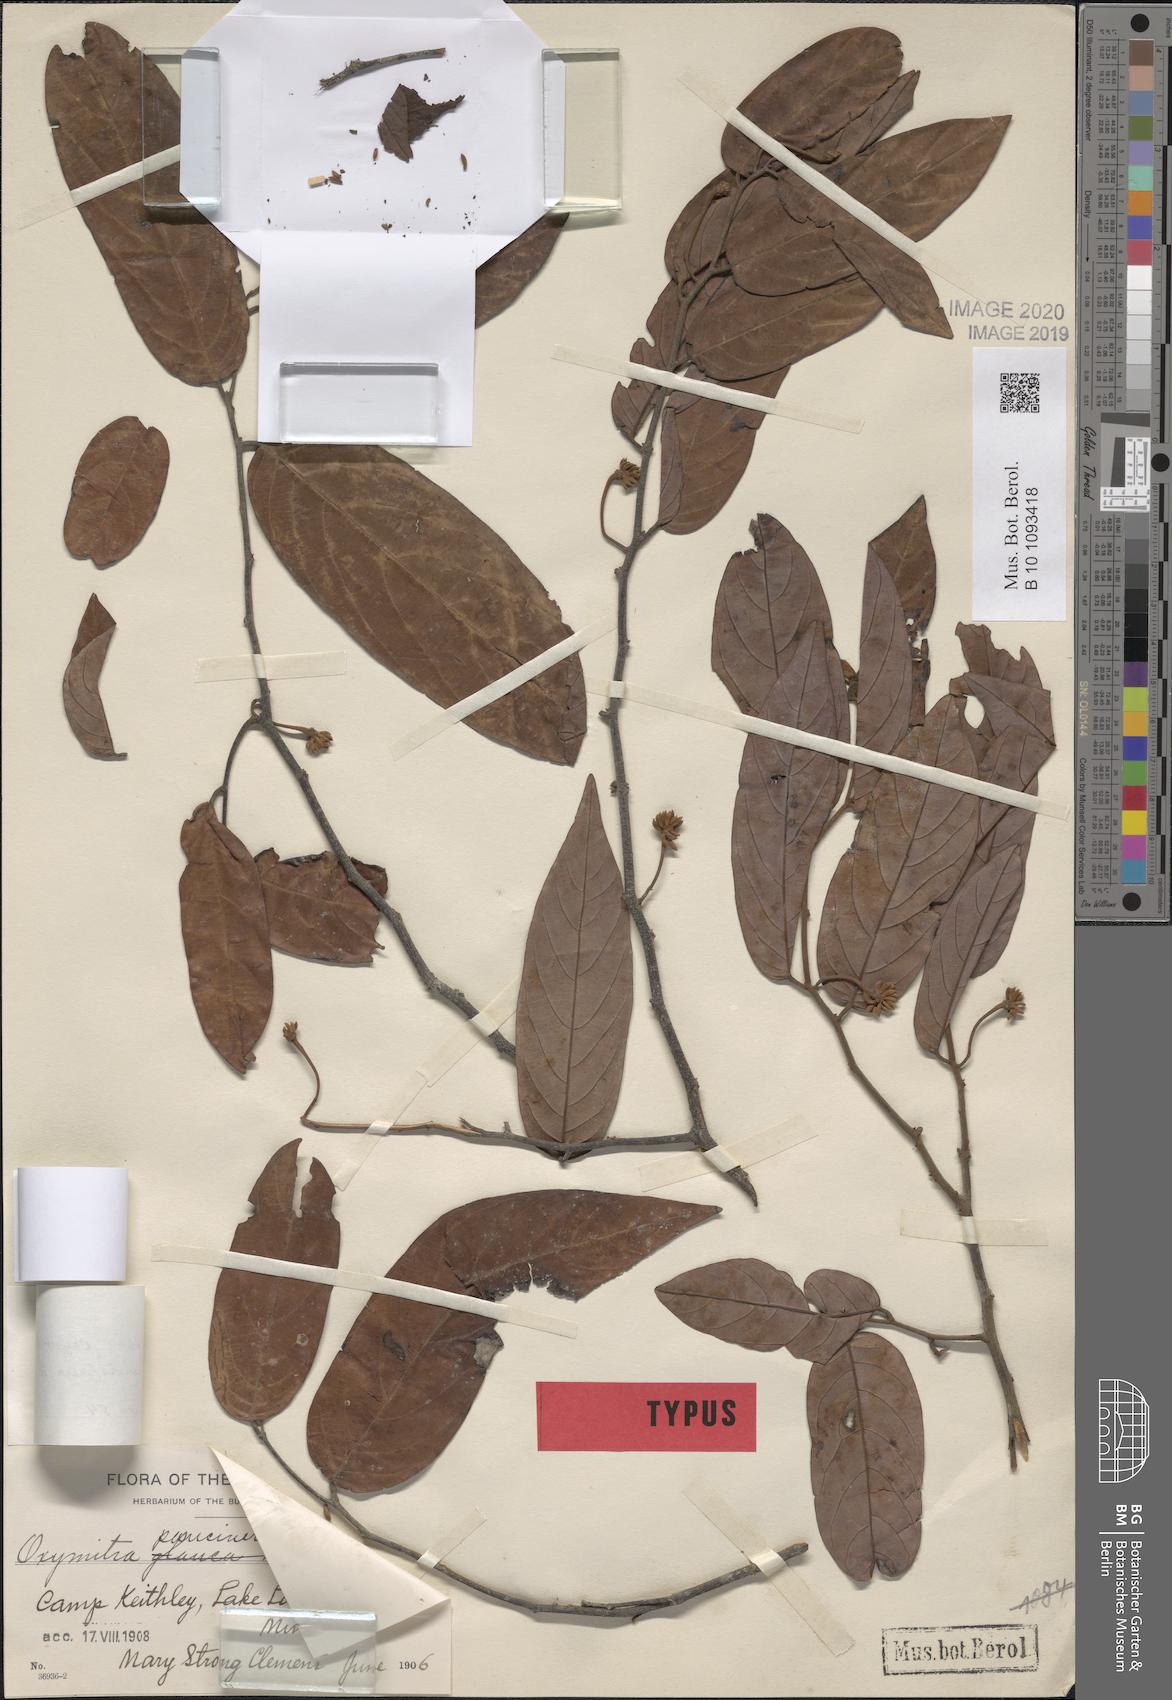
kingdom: Plantae
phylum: Tracheophyta
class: Magnoliopsida
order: Magnoliales
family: Annonaceae
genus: Friesodielsia
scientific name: Friesodielsia paucinervis
